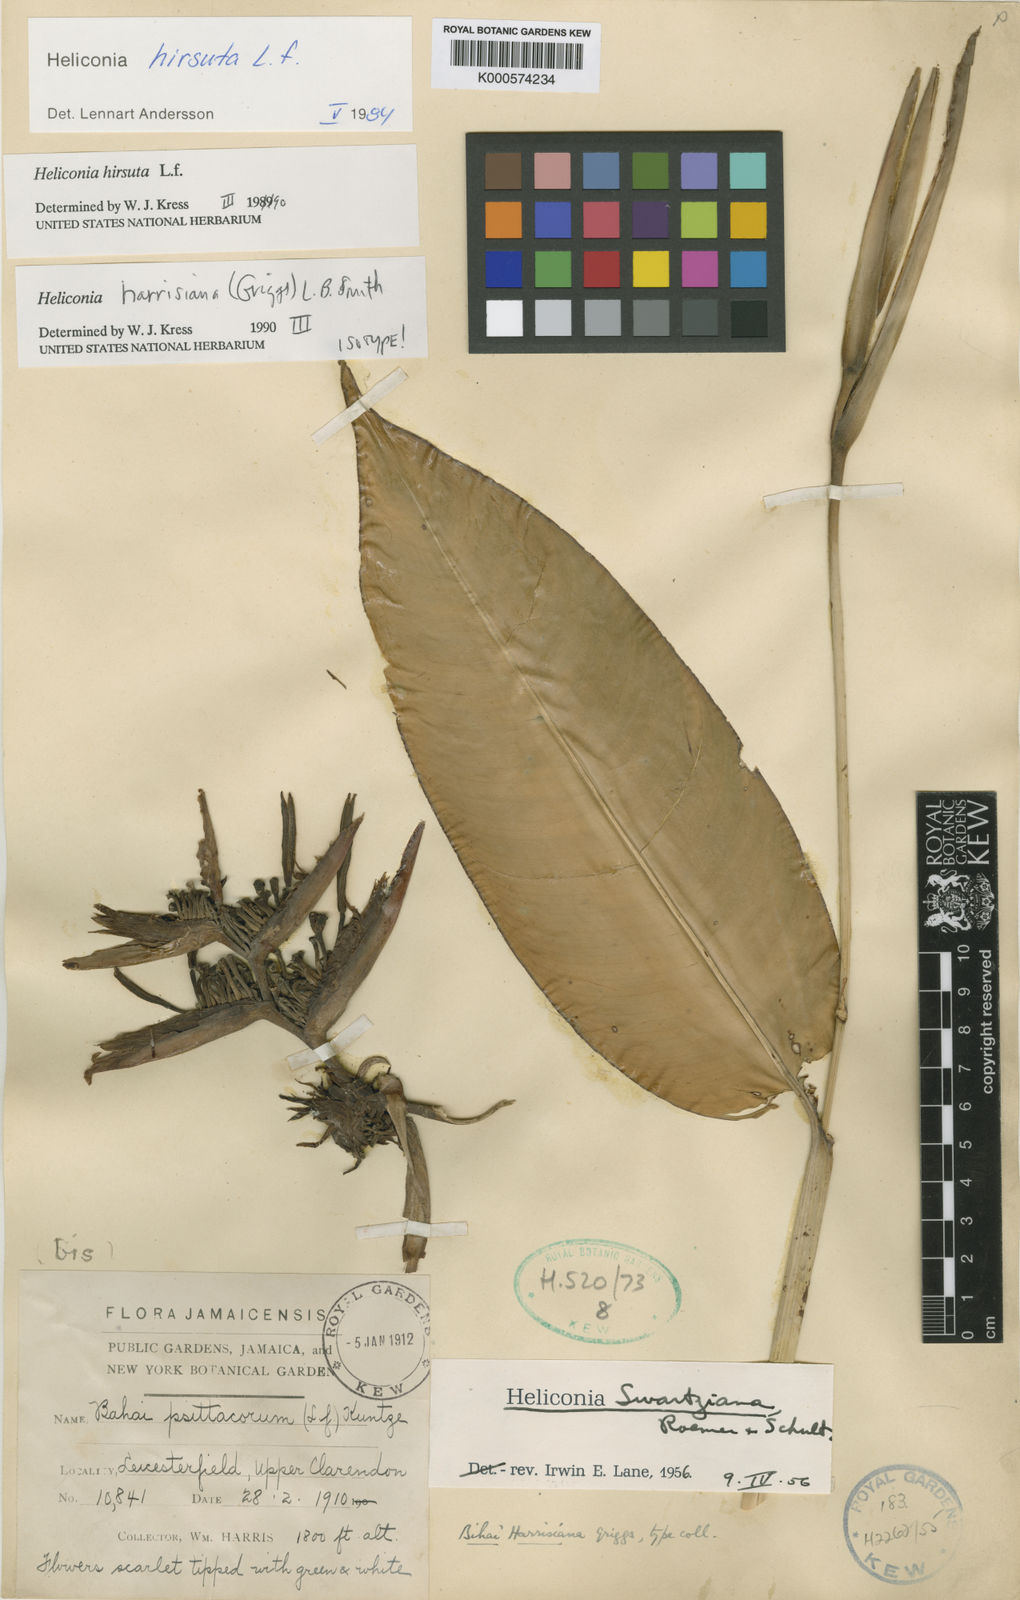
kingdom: Plantae
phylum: Tracheophyta
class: Liliopsida
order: Zingiberales
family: Heliconiaceae
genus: Heliconia
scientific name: Heliconia hirsuta
